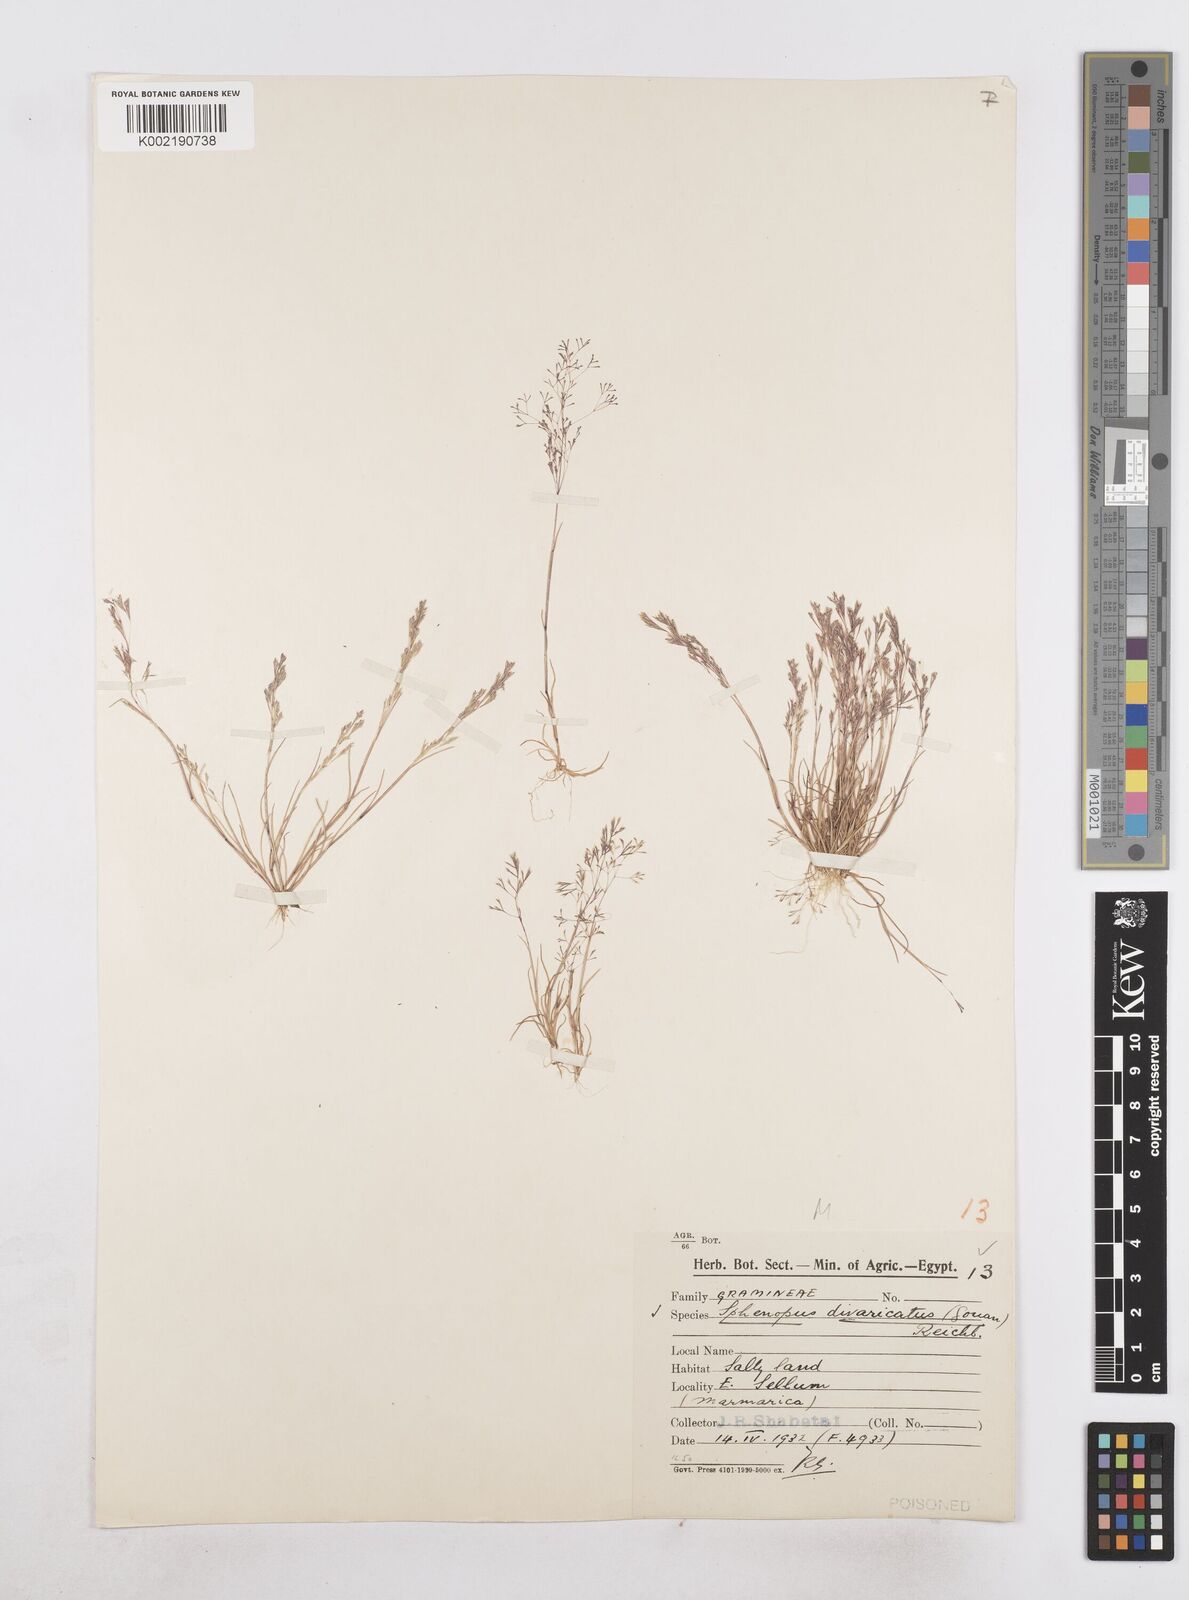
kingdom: Plantae
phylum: Tracheophyta
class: Liliopsida
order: Poales
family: Poaceae
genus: Sphenopus
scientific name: Sphenopus divaricatus
